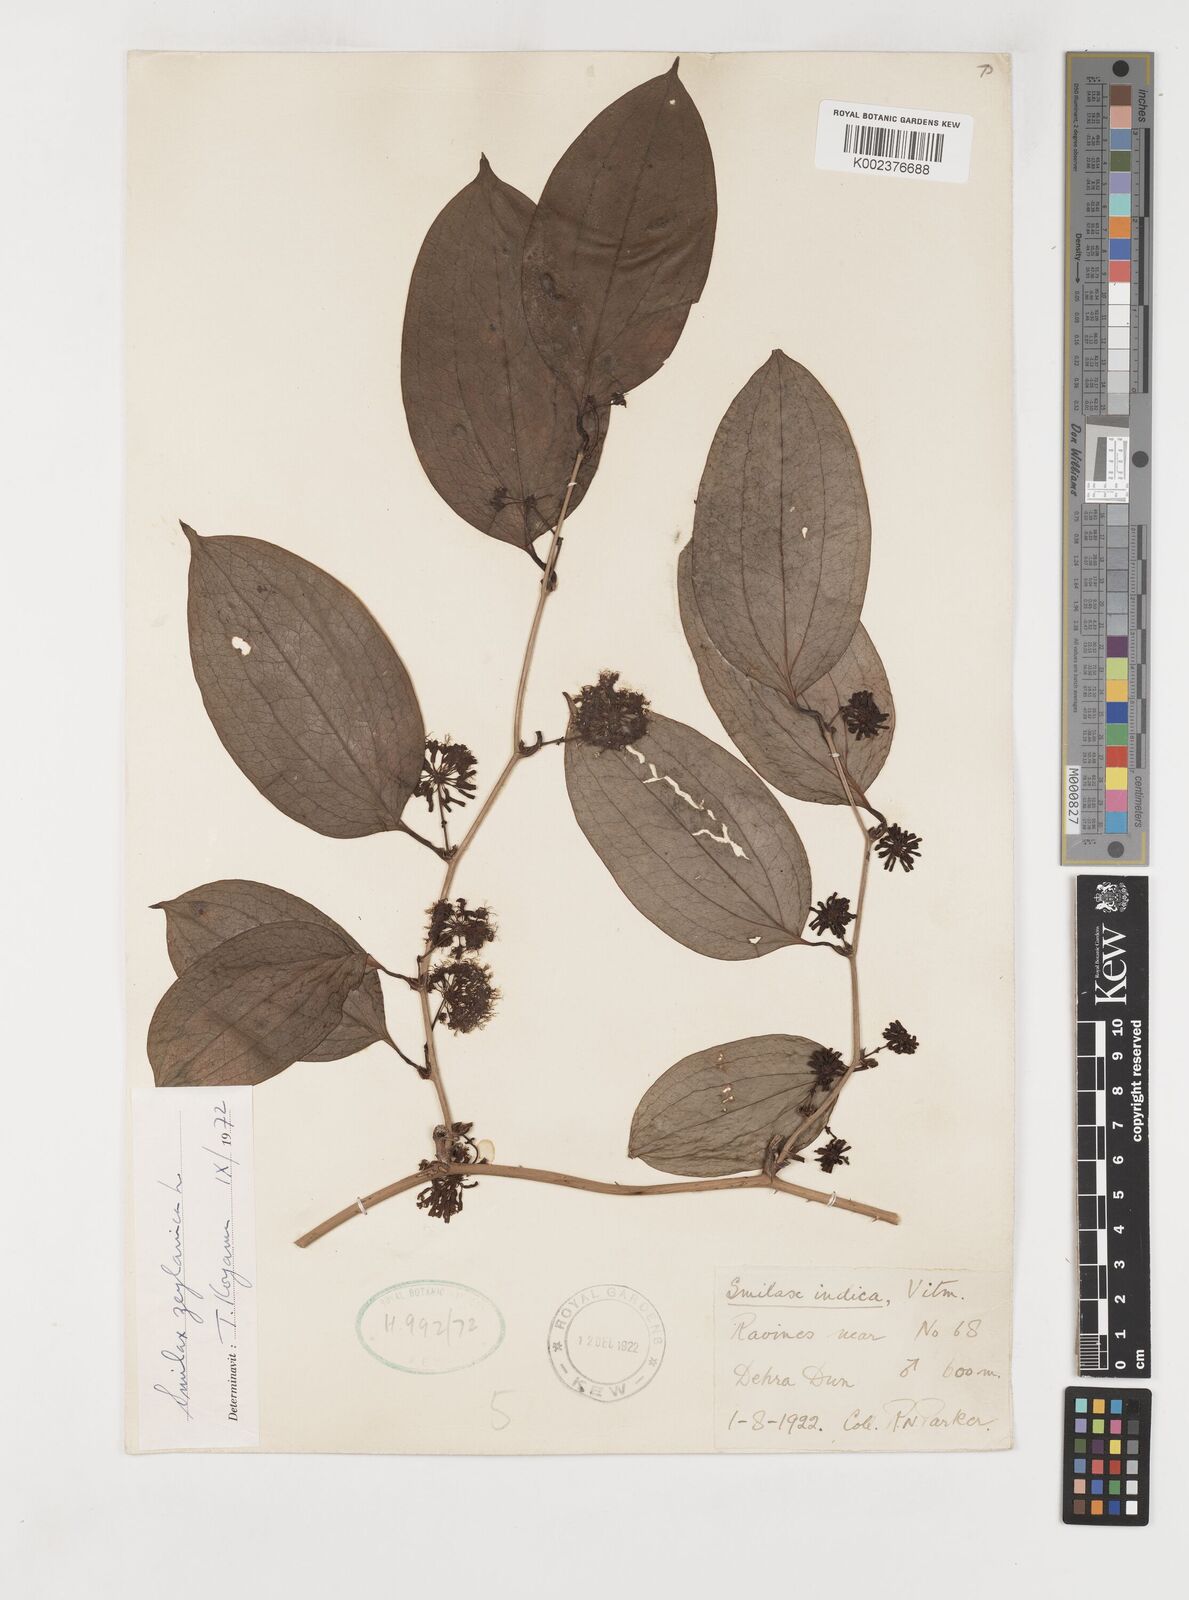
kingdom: Plantae
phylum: Tracheophyta
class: Liliopsida
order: Liliales
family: Smilacaceae
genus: Smilax
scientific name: Smilax zeylanica
